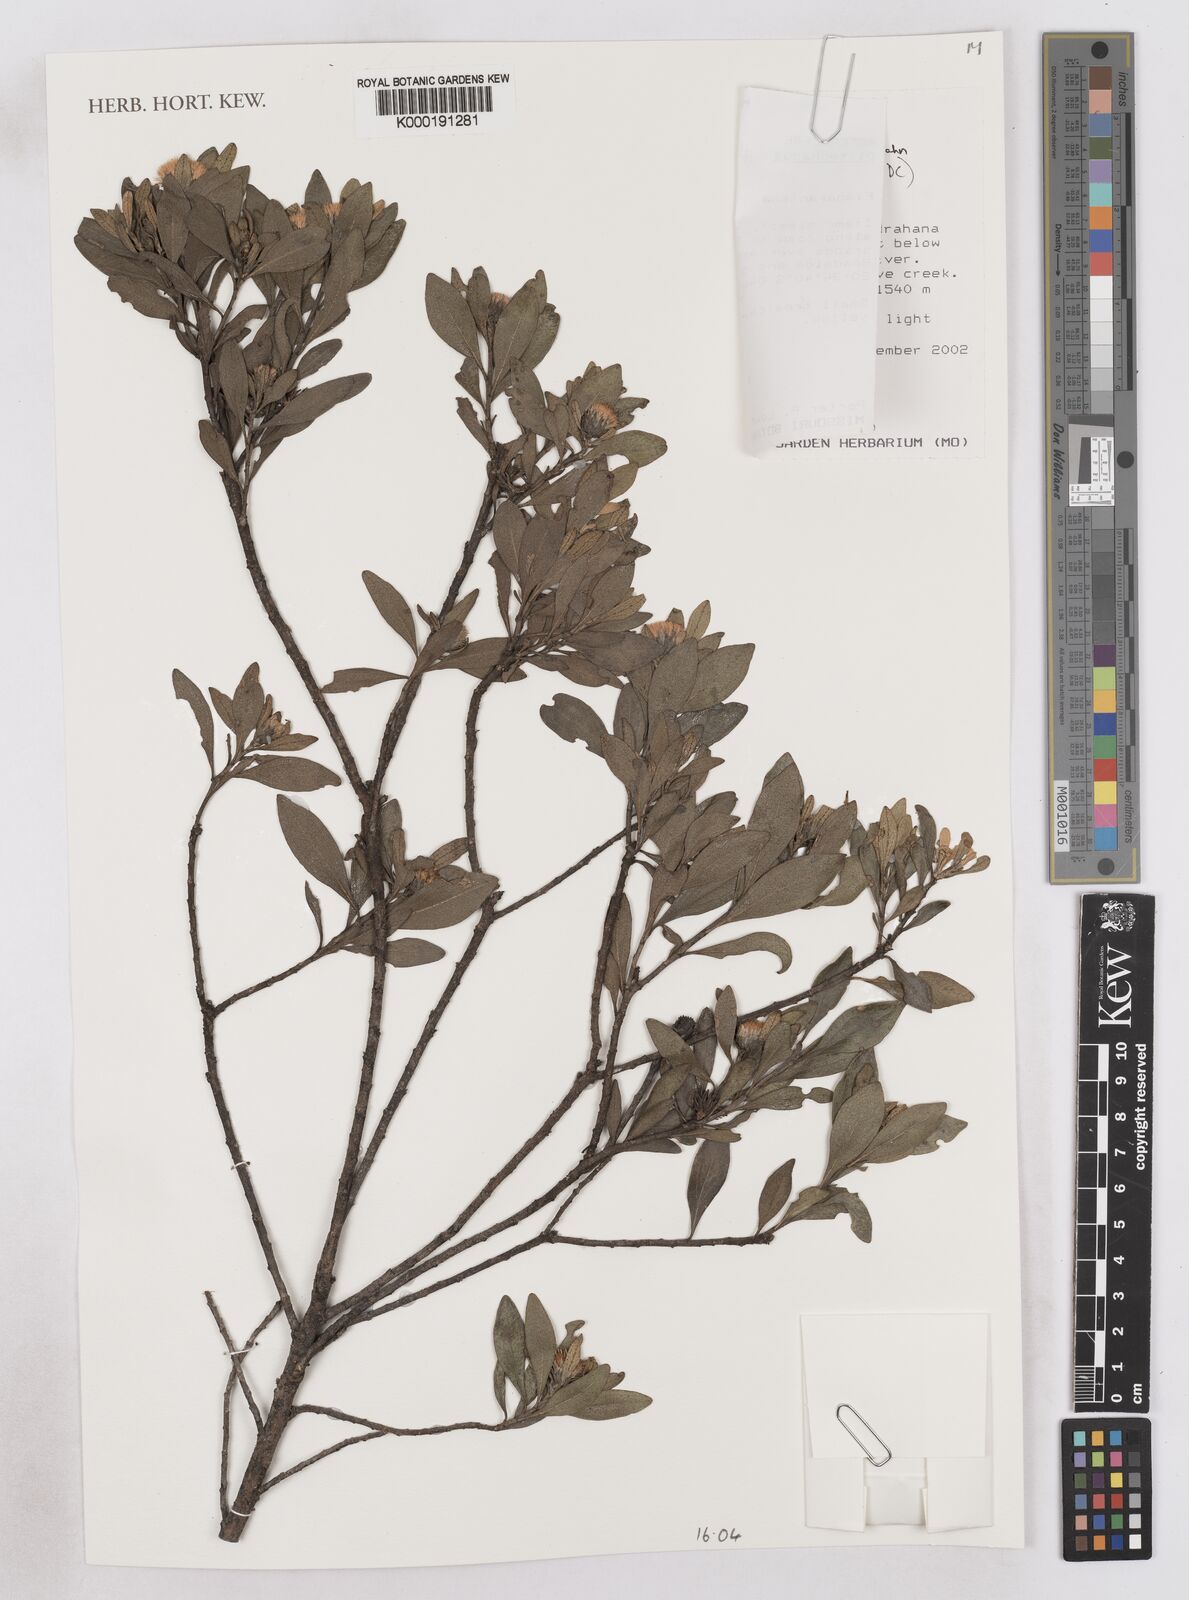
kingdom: Plantae
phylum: Tracheophyta
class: Magnoliopsida
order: Asterales
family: Asteraceae
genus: Distephanus
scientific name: Distephanus glutinosus
